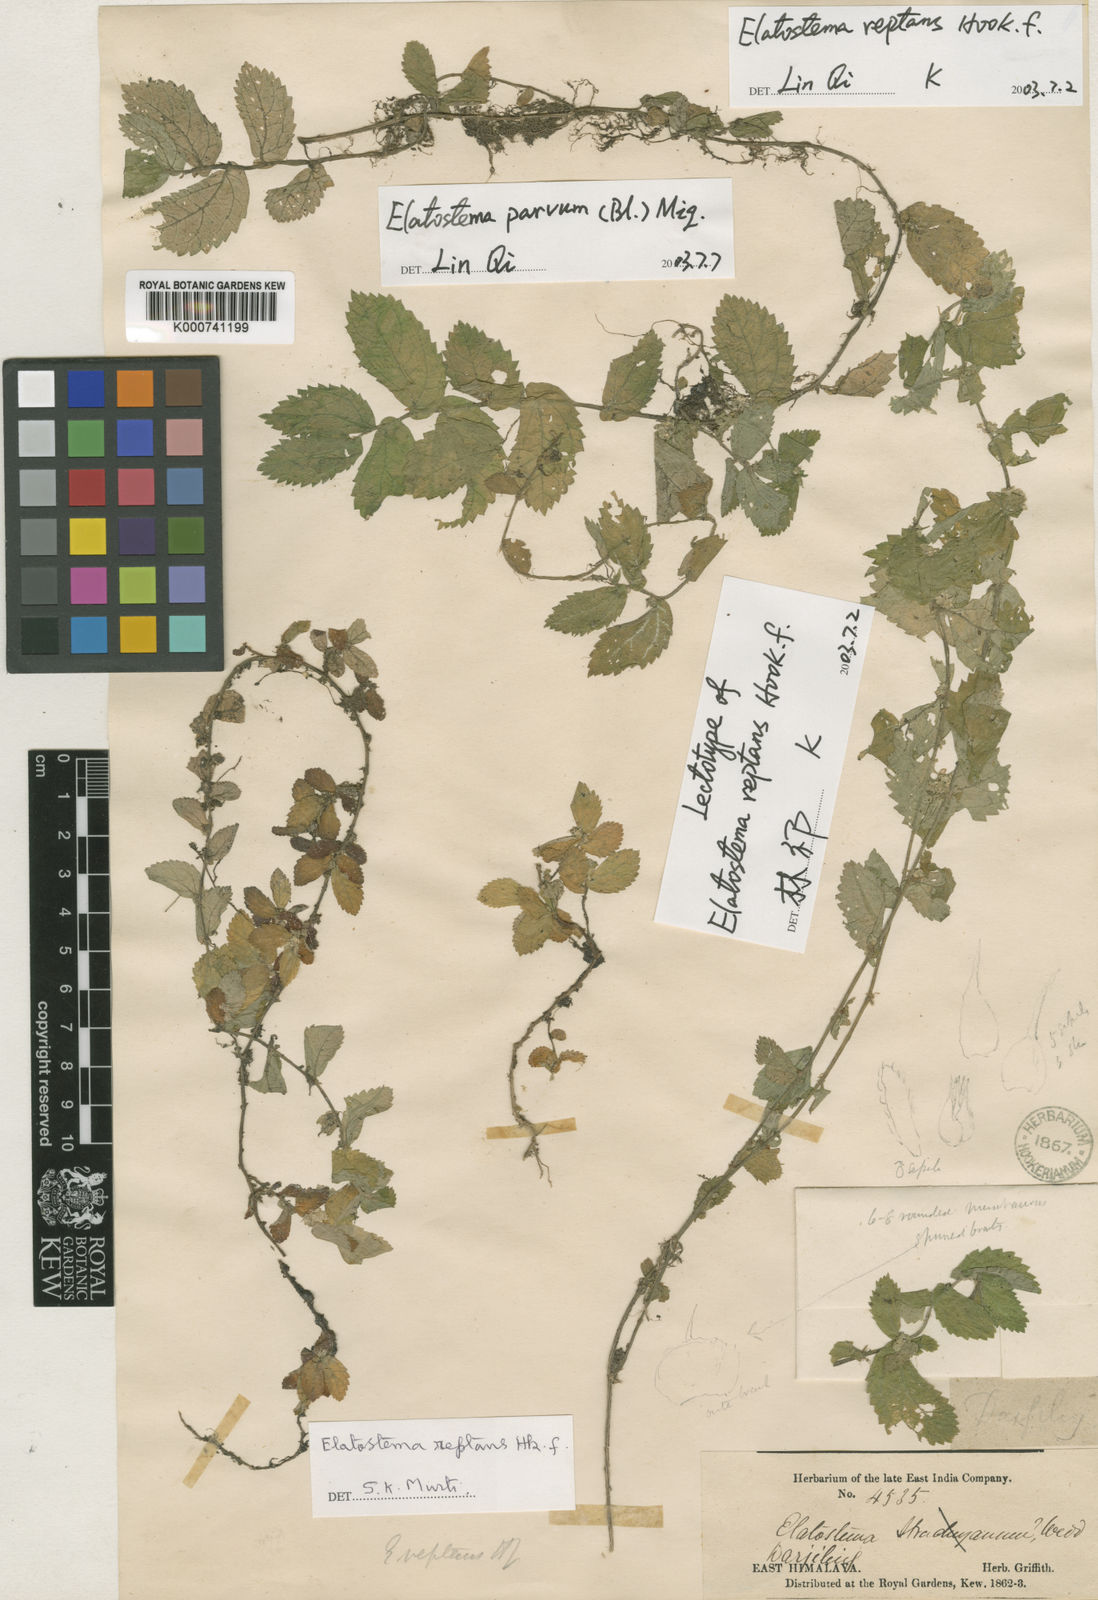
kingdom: Plantae
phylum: Tracheophyta
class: Magnoliopsida
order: Rosales
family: Urticaceae
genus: Elatostema
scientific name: Elatostema parvum
